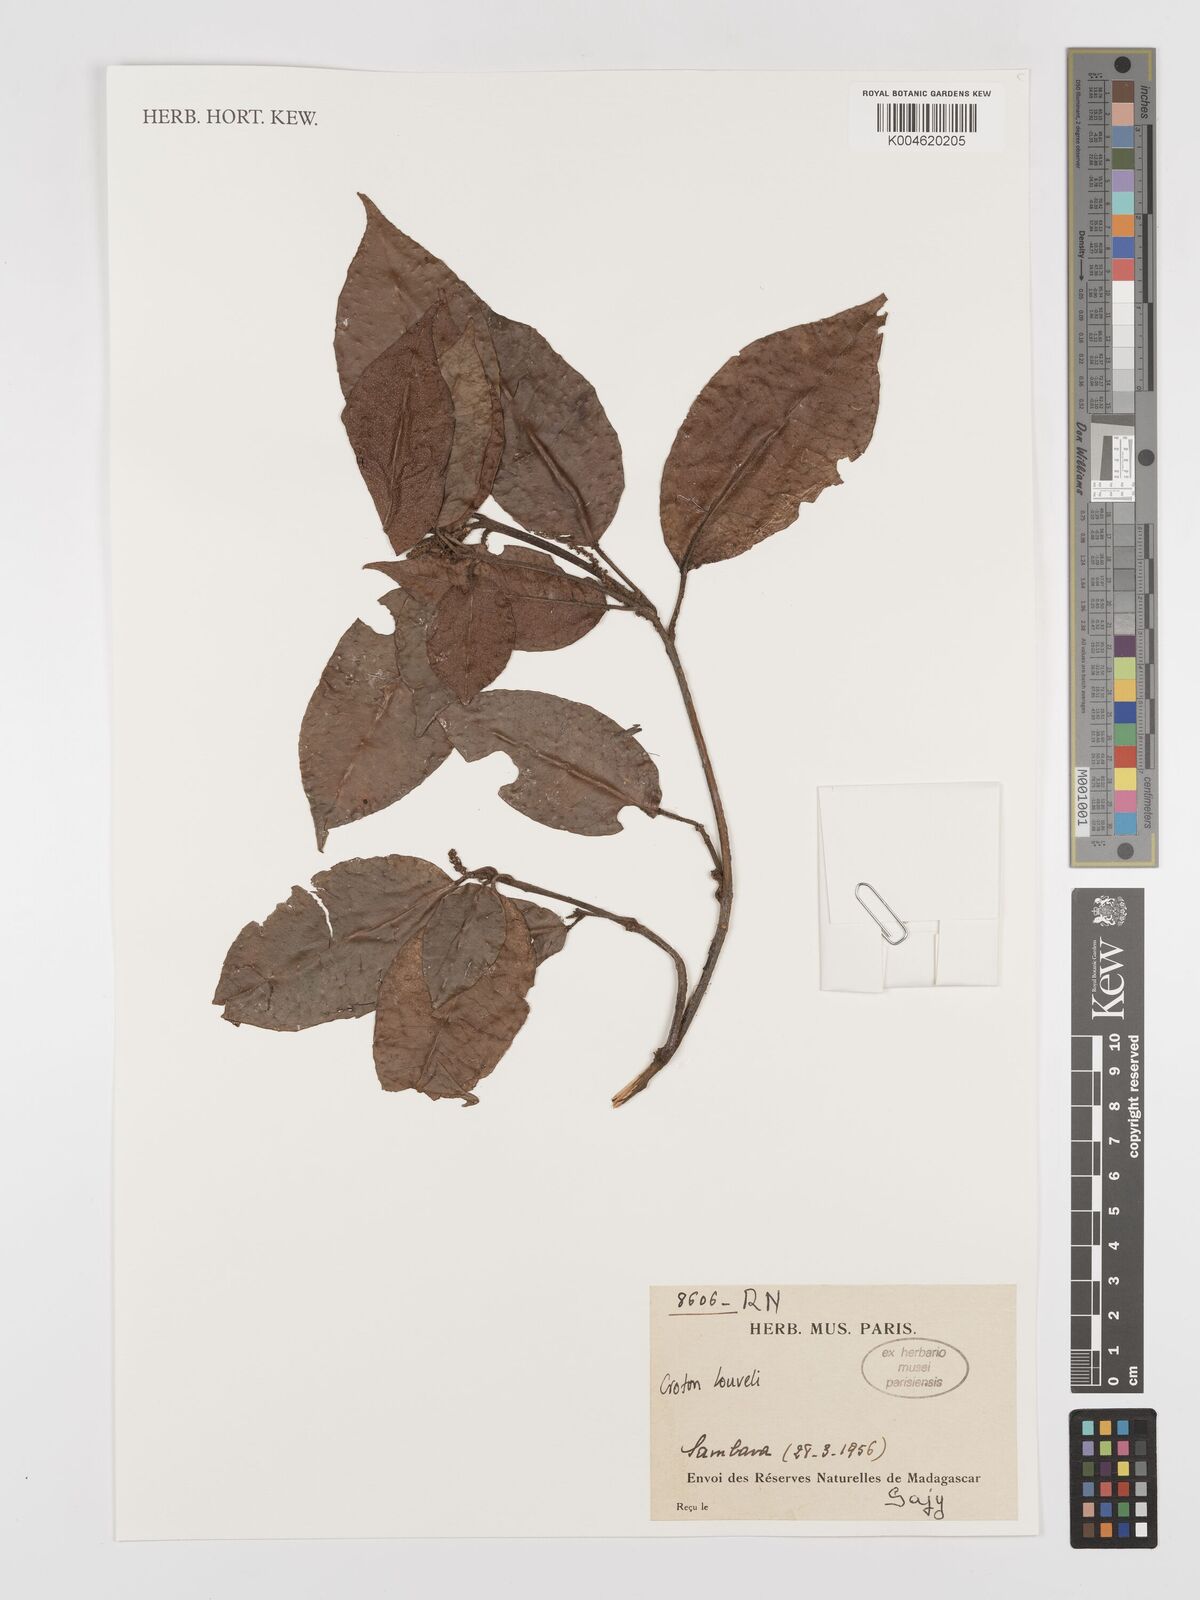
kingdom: Plantae
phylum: Tracheophyta
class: Magnoliopsida
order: Malpighiales
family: Euphorbiaceae
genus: Croton
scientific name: Croton chapelieri
